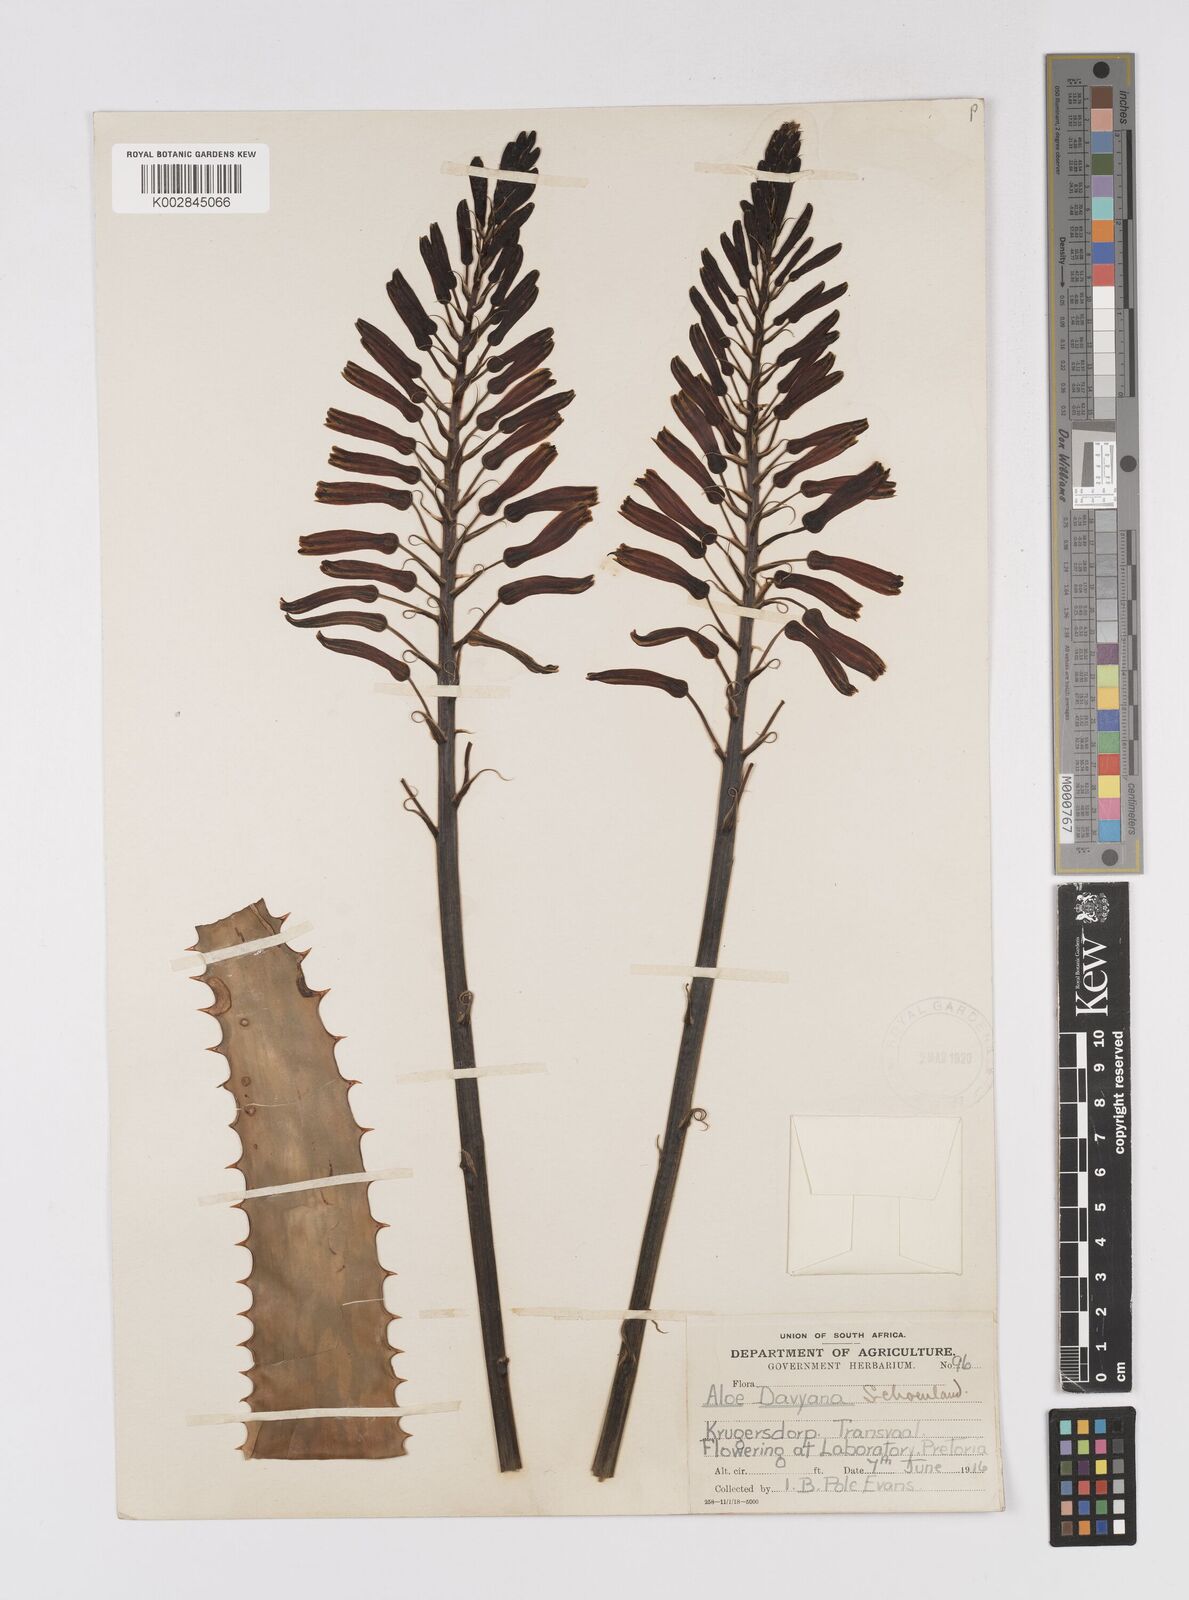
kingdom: Plantae
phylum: Tracheophyta
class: Liliopsida
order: Asparagales
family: Asphodelaceae
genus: Aloe
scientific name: Aloe davyana
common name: Spotted aloe
